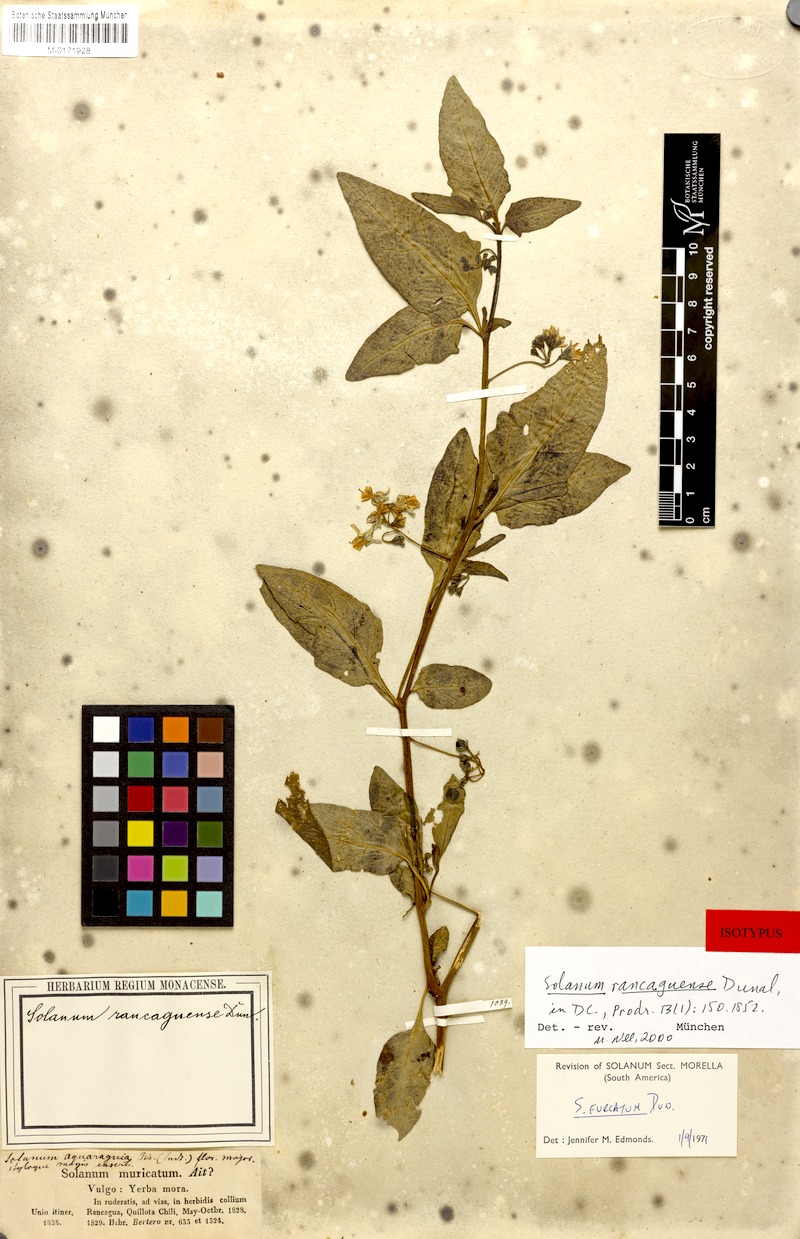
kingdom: Plantae
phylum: Tracheophyta
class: Magnoliopsida
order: Solanales
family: Solanaceae
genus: Solanum
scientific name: Solanum furcatum
